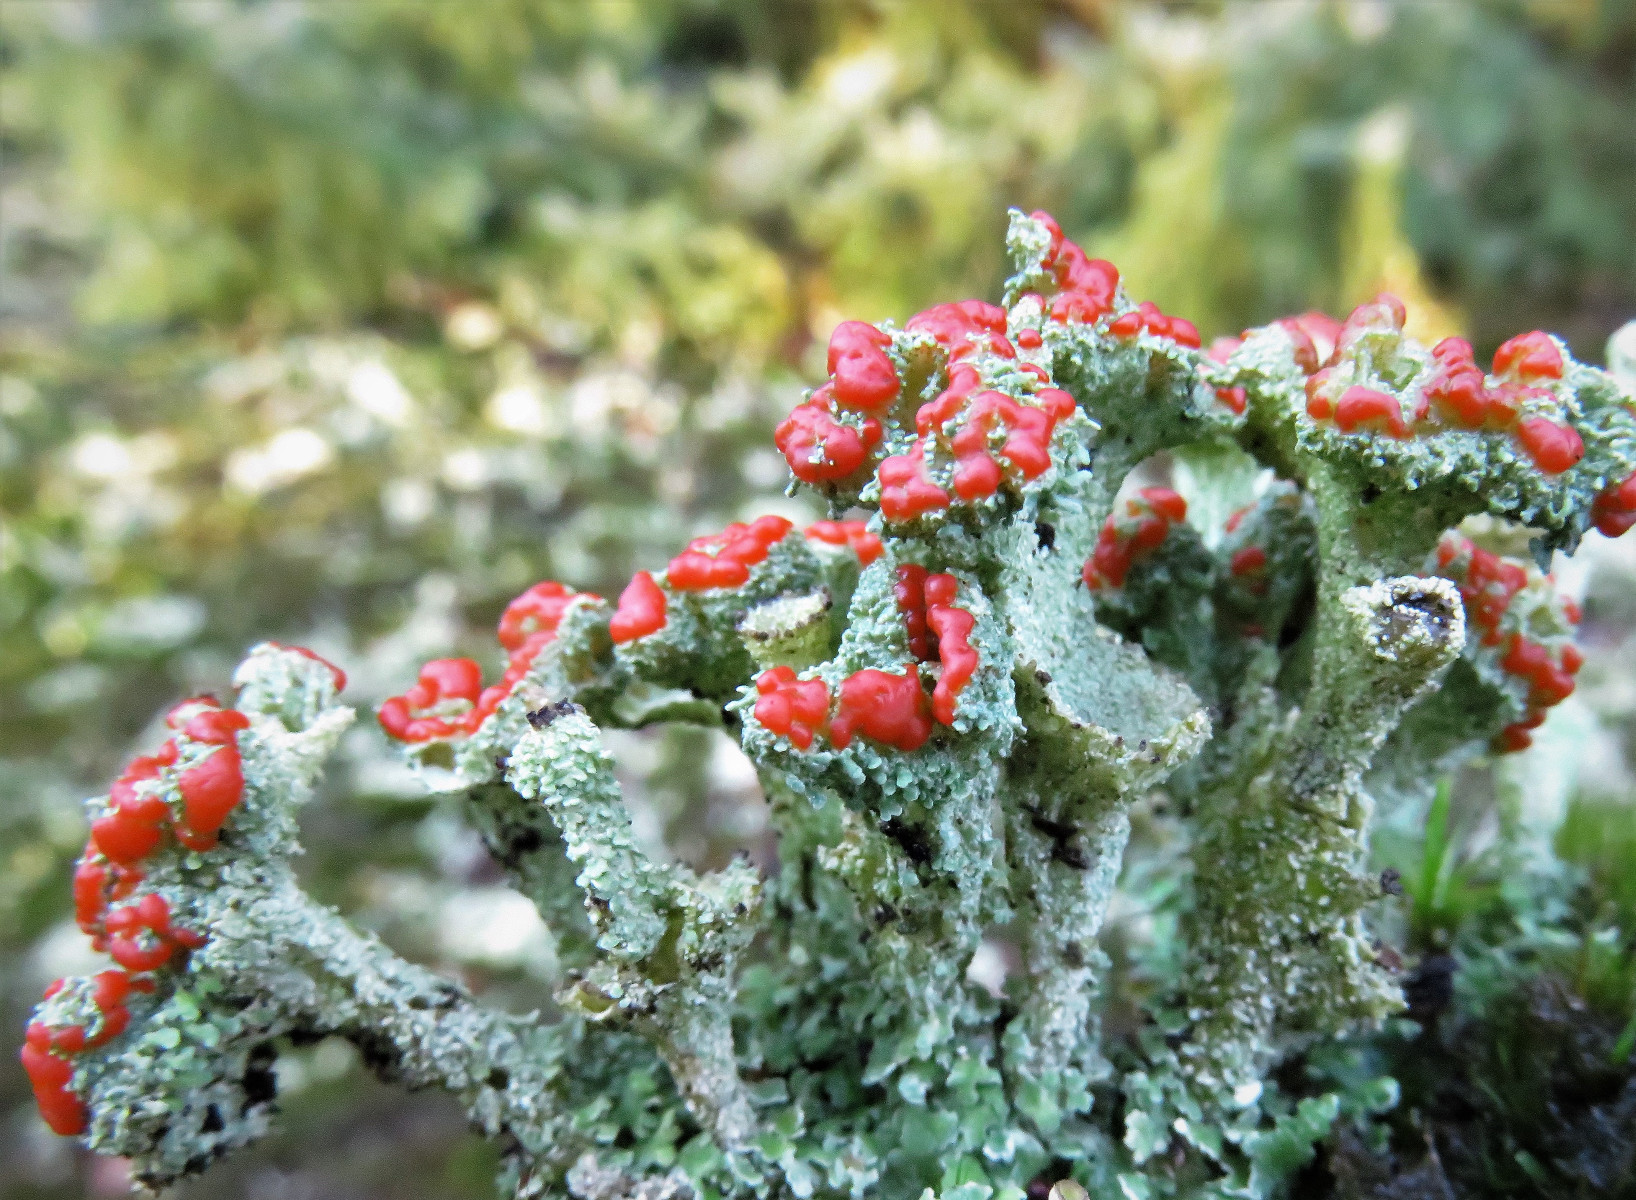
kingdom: Fungi
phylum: Ascomycota
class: Lecanoromycetes
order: Lecanorales
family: Cladoniaceae
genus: Cladonia
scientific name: Cladonia diversa
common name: rød bægerlav
